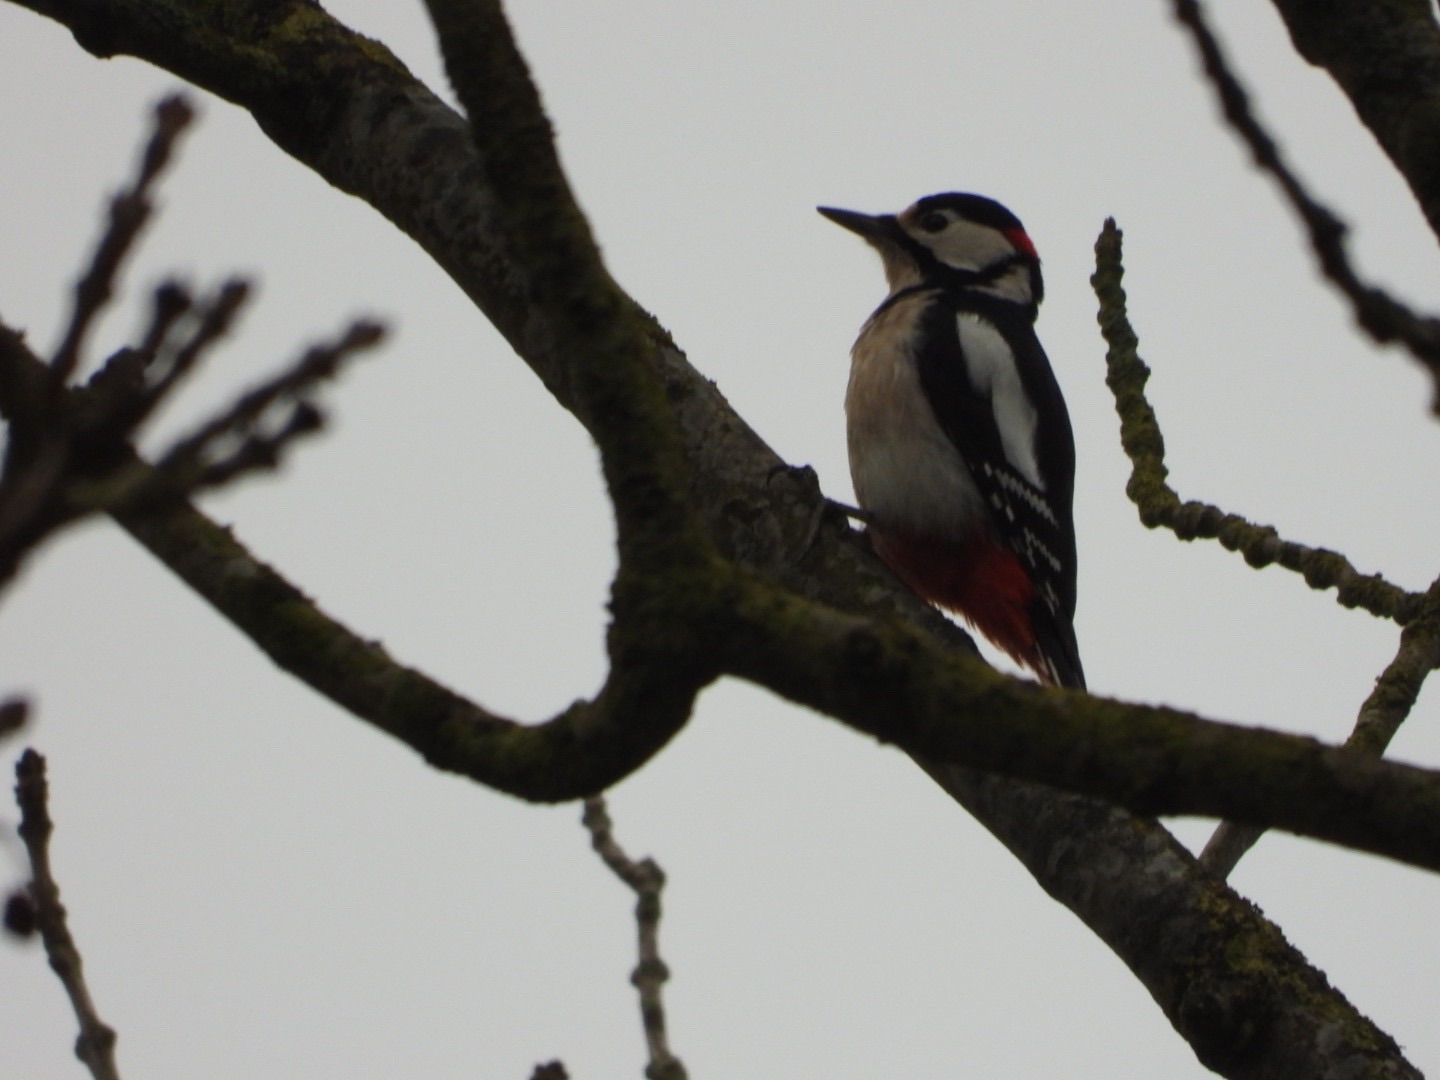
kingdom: Animalia
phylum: Chordata
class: Aves
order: Piciformes
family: Picidae
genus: Dendrocopos
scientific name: Dendrocopos major
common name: Stor flagspætte
